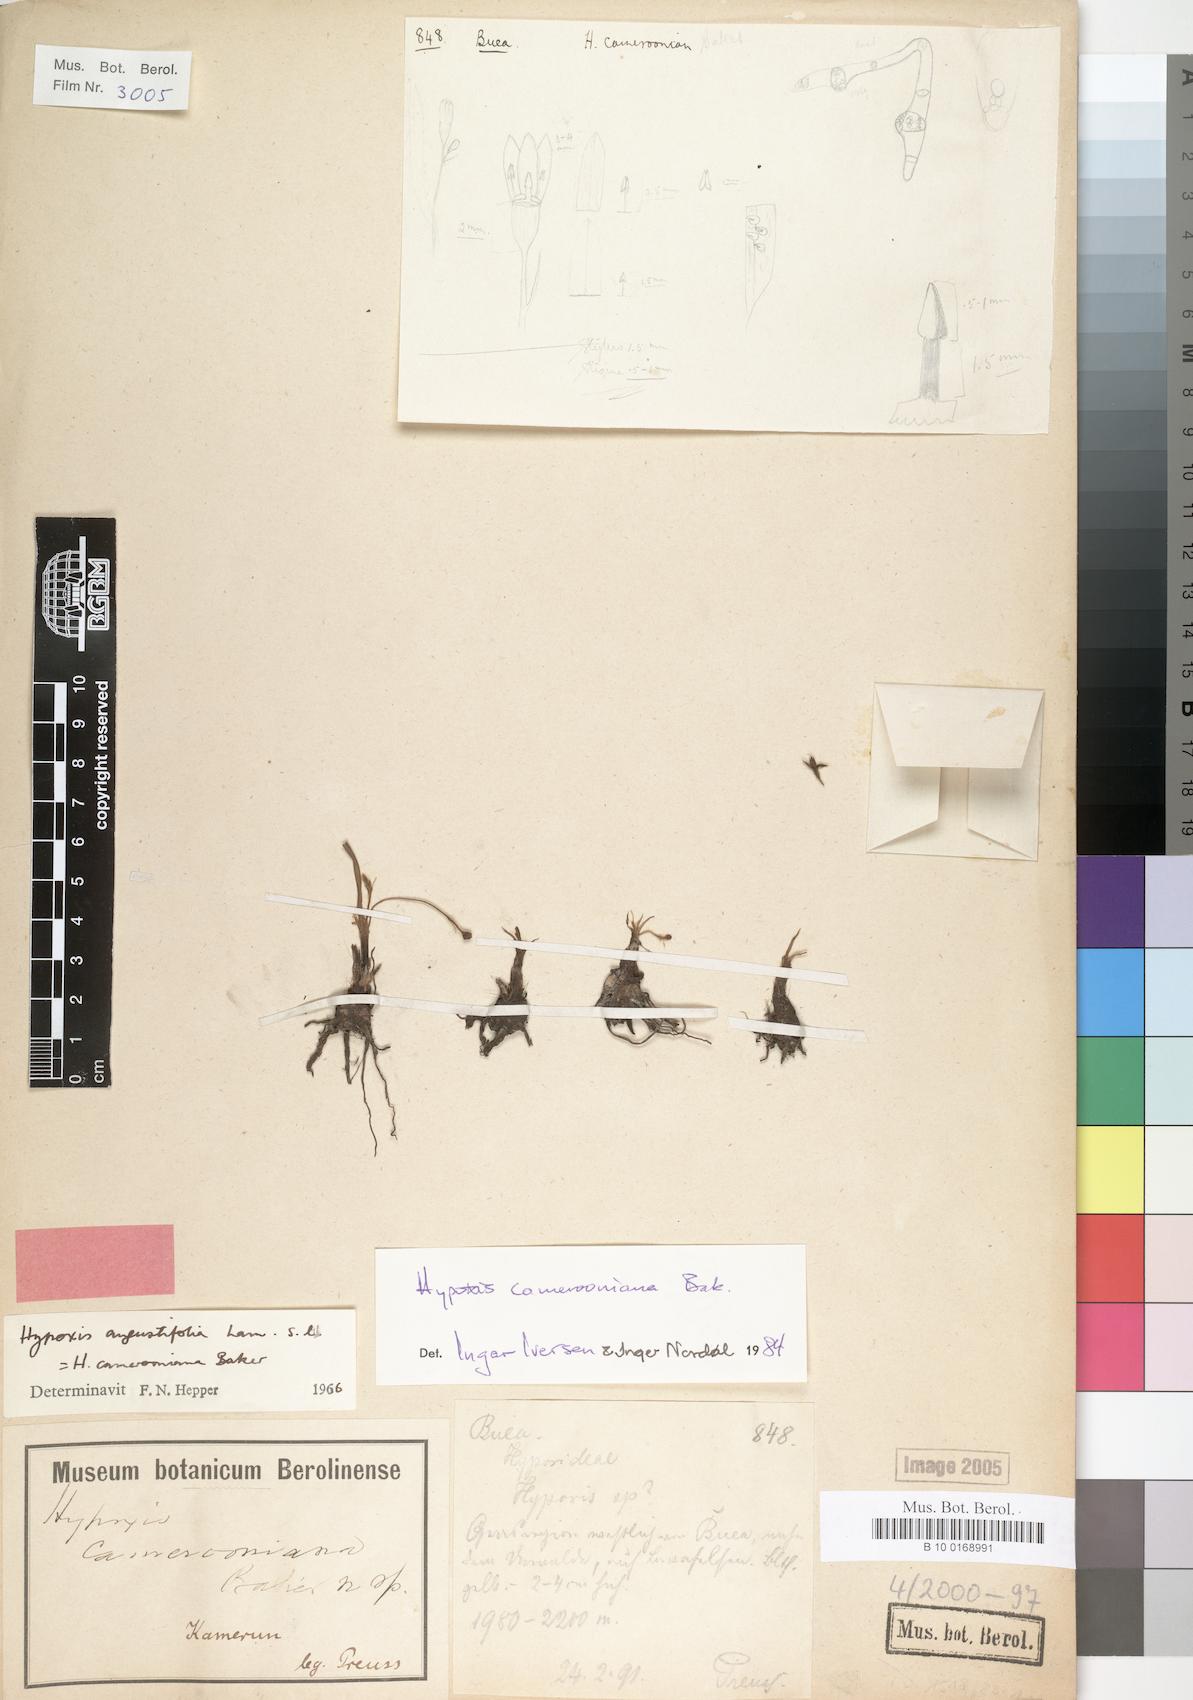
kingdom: Plantae
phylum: Tracheophyta
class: Liliopsida
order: Asparagales
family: Hypoxidaceae
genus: Hypoxis
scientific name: Hypoxis camerooniana
